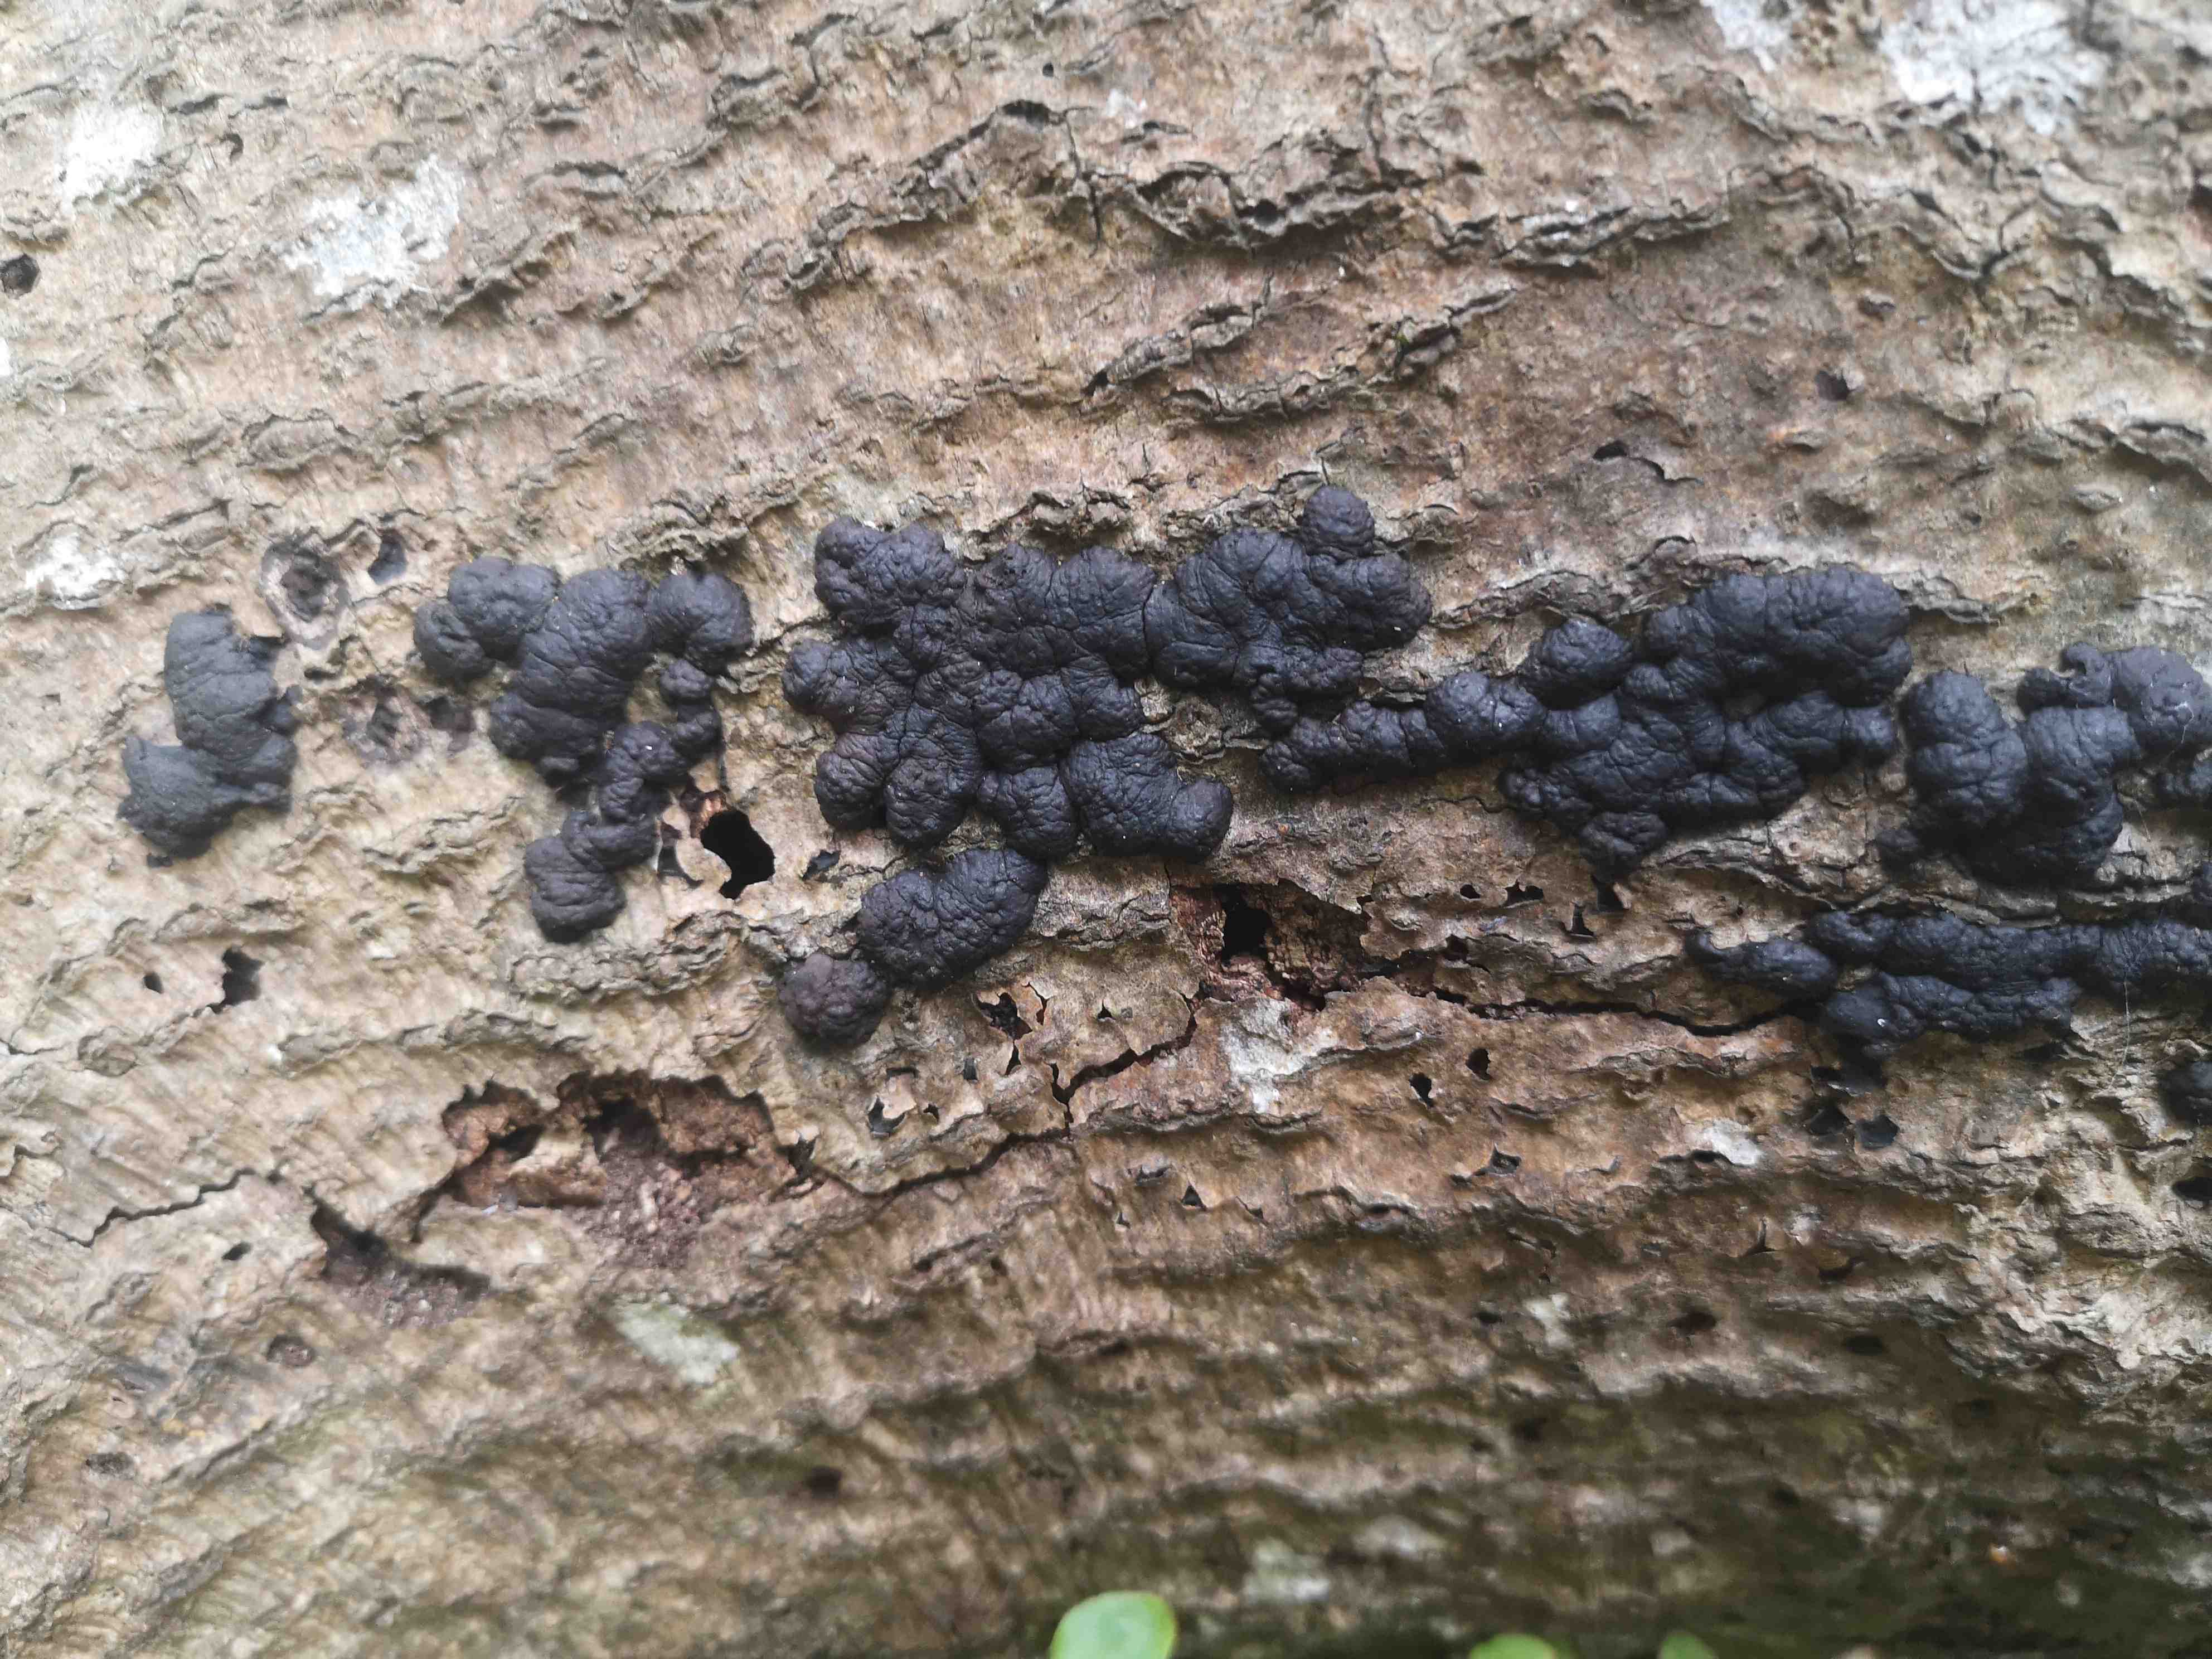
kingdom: Fungi
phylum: Ascomycota
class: Sordariomycetes
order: Xylariales
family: Hypoxylaceae
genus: Jackrogersella
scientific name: Jackrogersella cohaerens
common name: sammenflydende kulbær
